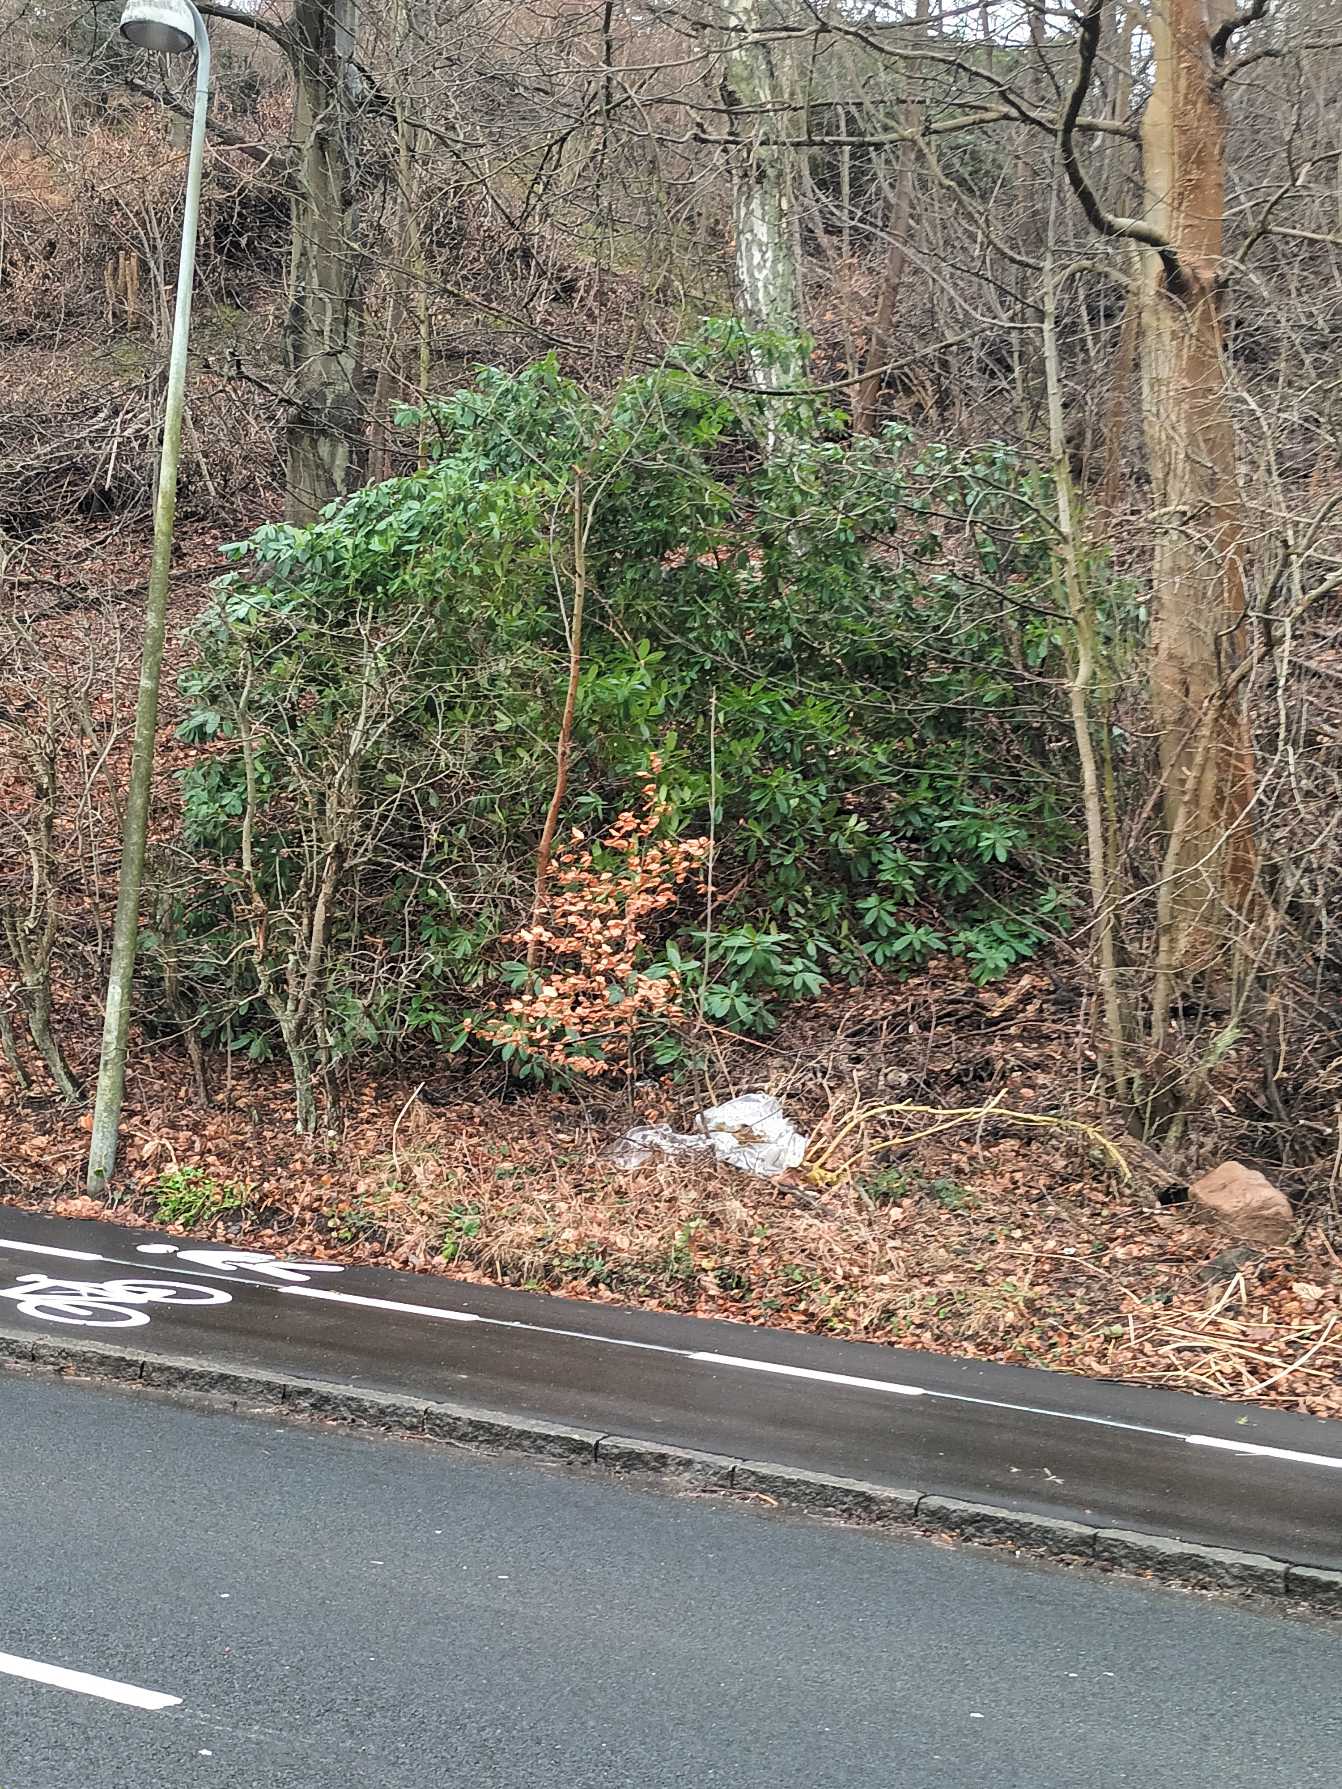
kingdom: Plantae
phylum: Tracheophyta
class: Magnoliopsida
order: Ericales
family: Ericaceae
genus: Rhododendron
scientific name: Rhododendron
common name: Rhododendronslægten
